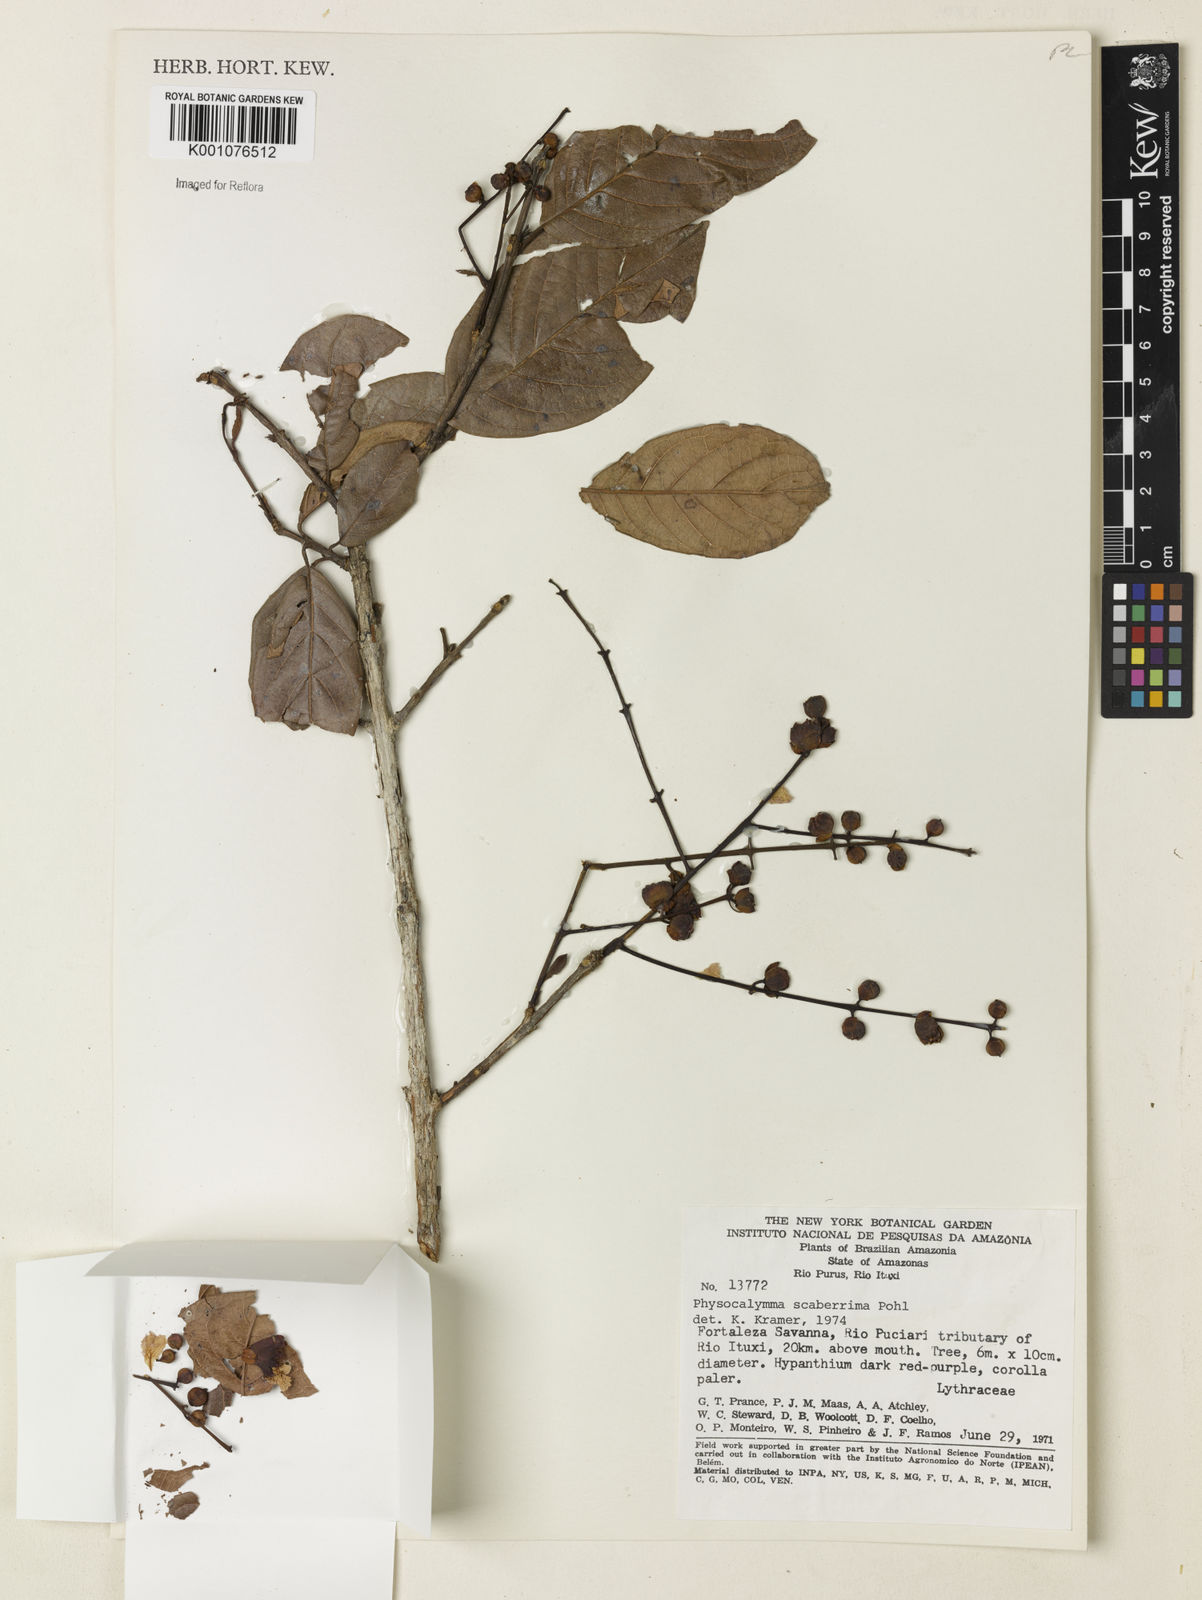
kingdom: Plantae
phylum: Tracheophyta
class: Magnoliopsida
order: Myrtales
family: Lythraceae
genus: Physocalymma
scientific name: Physocalymma scaberrimum
